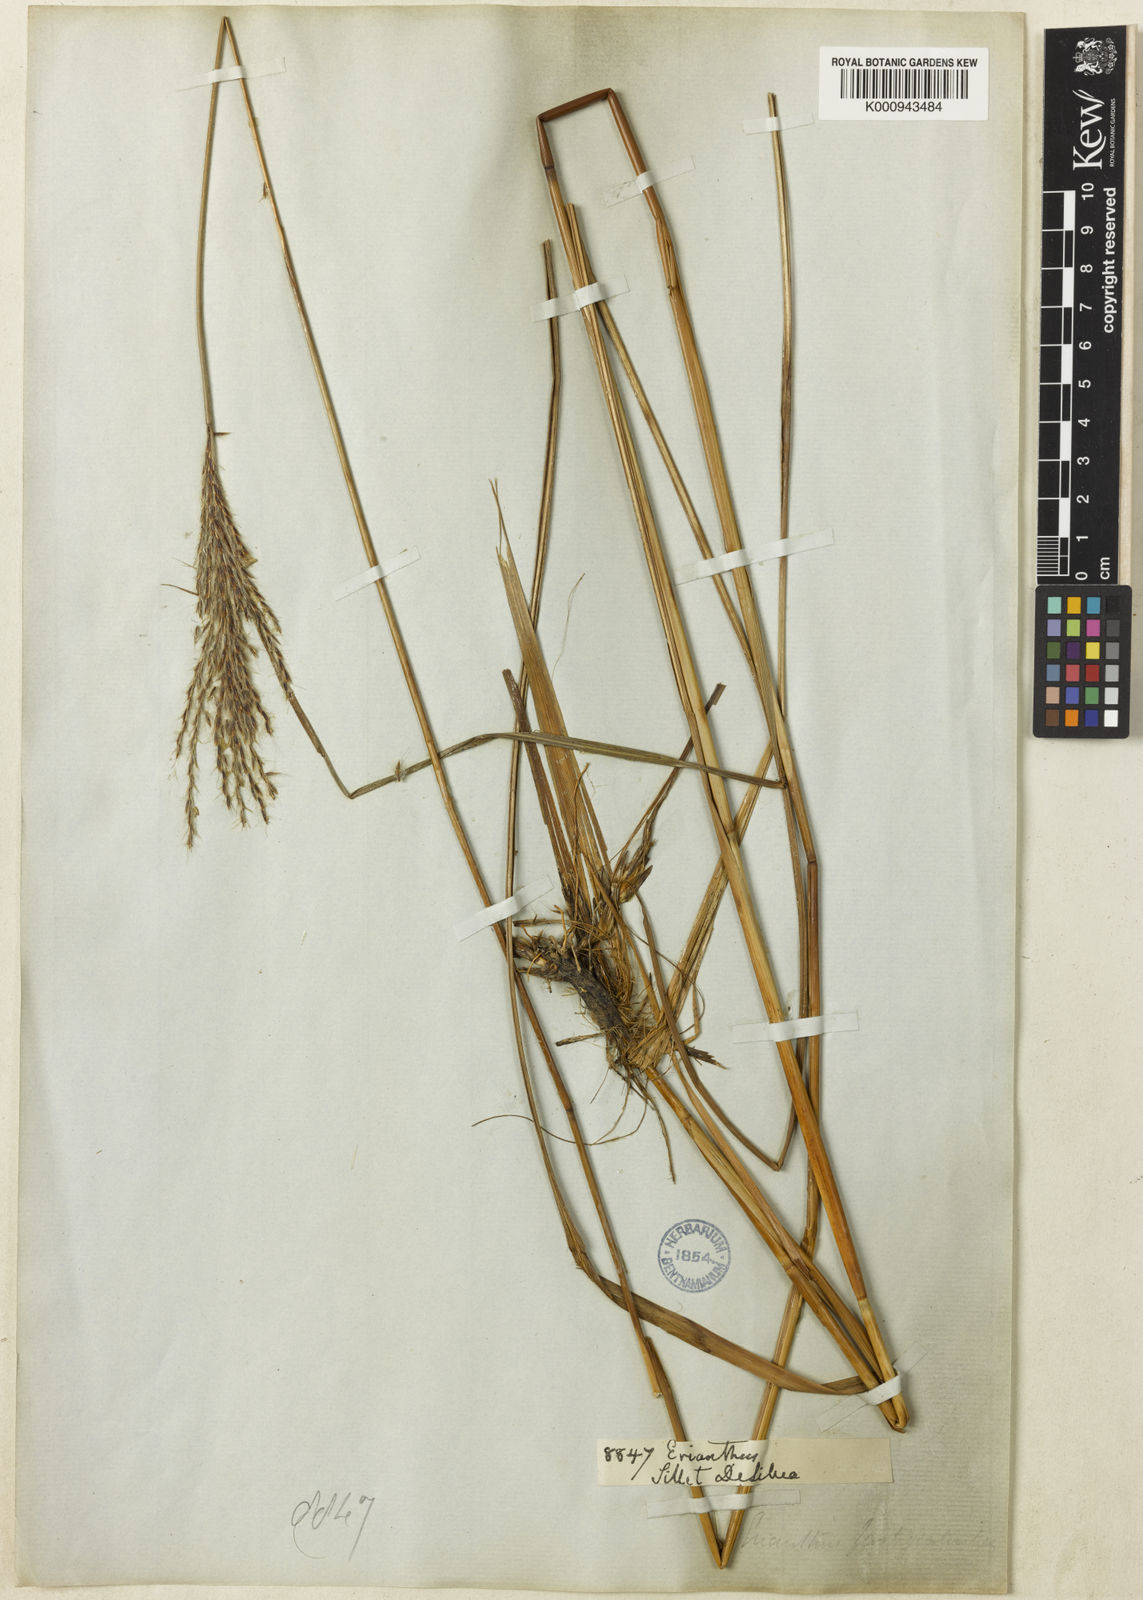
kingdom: Plantae
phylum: Tracheophyta
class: Liliopsida
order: Poales
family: Poaceae
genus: Eulalia
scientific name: Eulalia fastigiata
